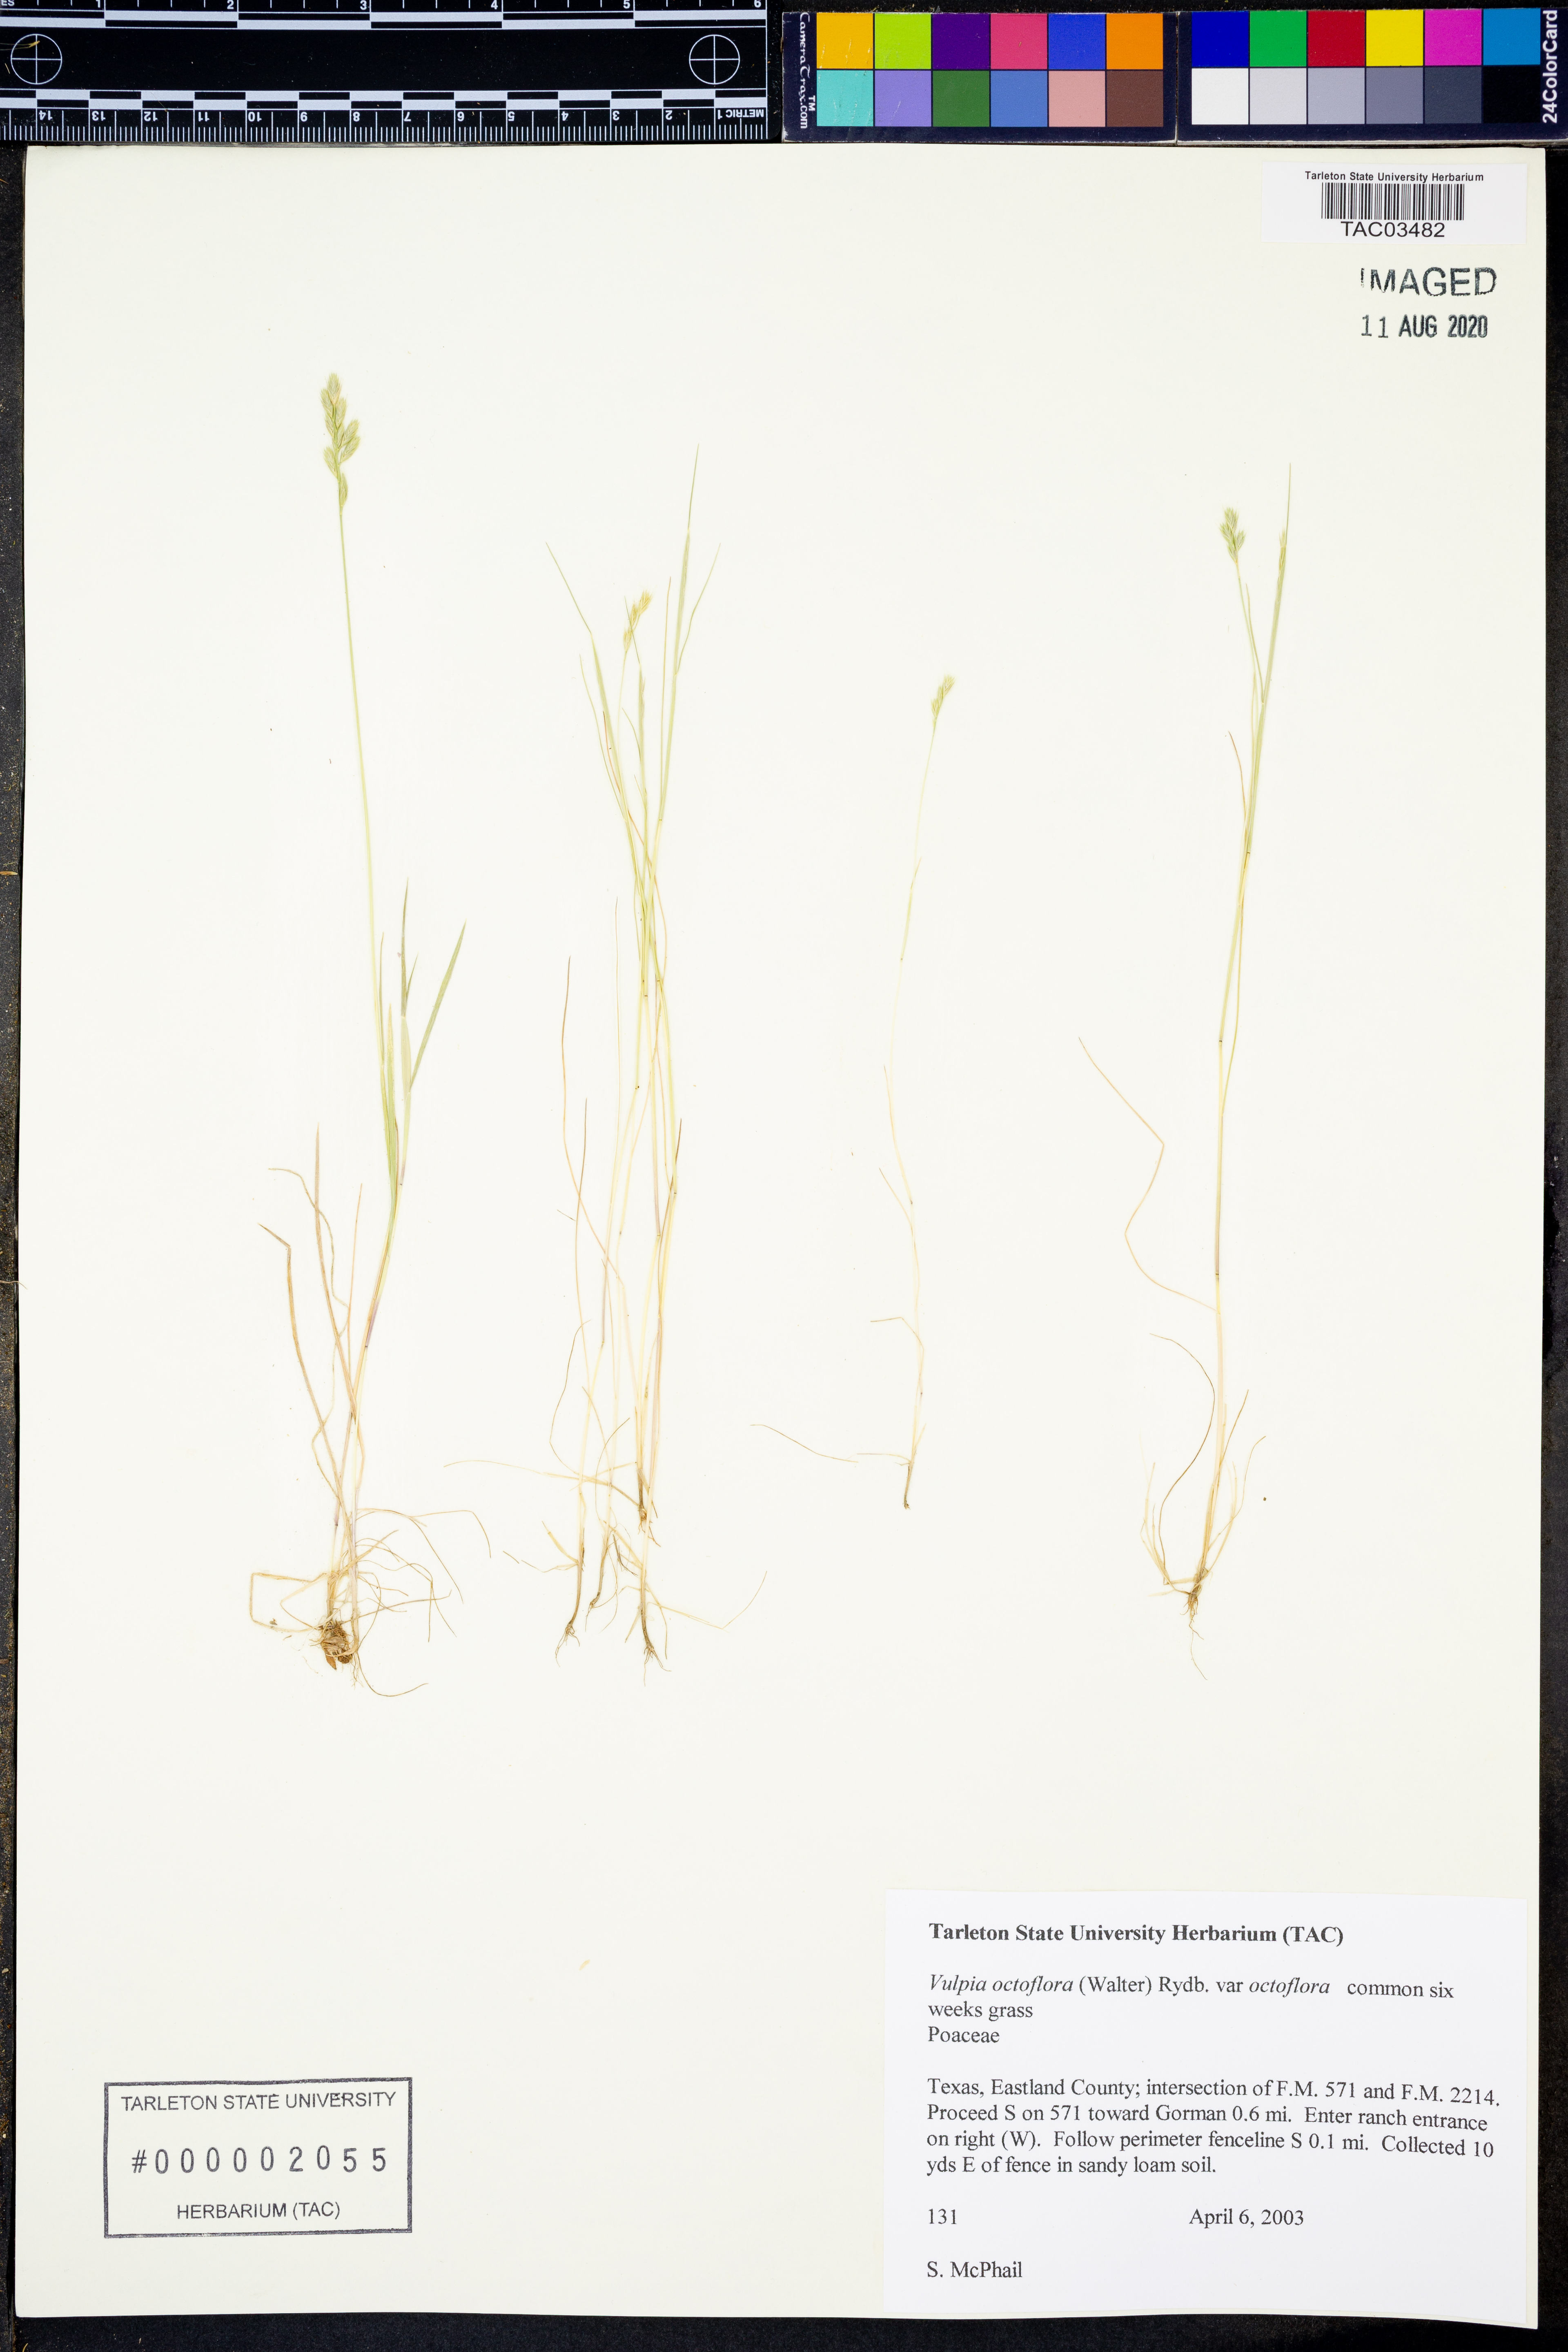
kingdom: Plantae
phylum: Tracheophyta
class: Liliopsida
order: Poales
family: Poaceae
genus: Festuca
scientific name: Festuca octoflora
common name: Sixweeks grass
